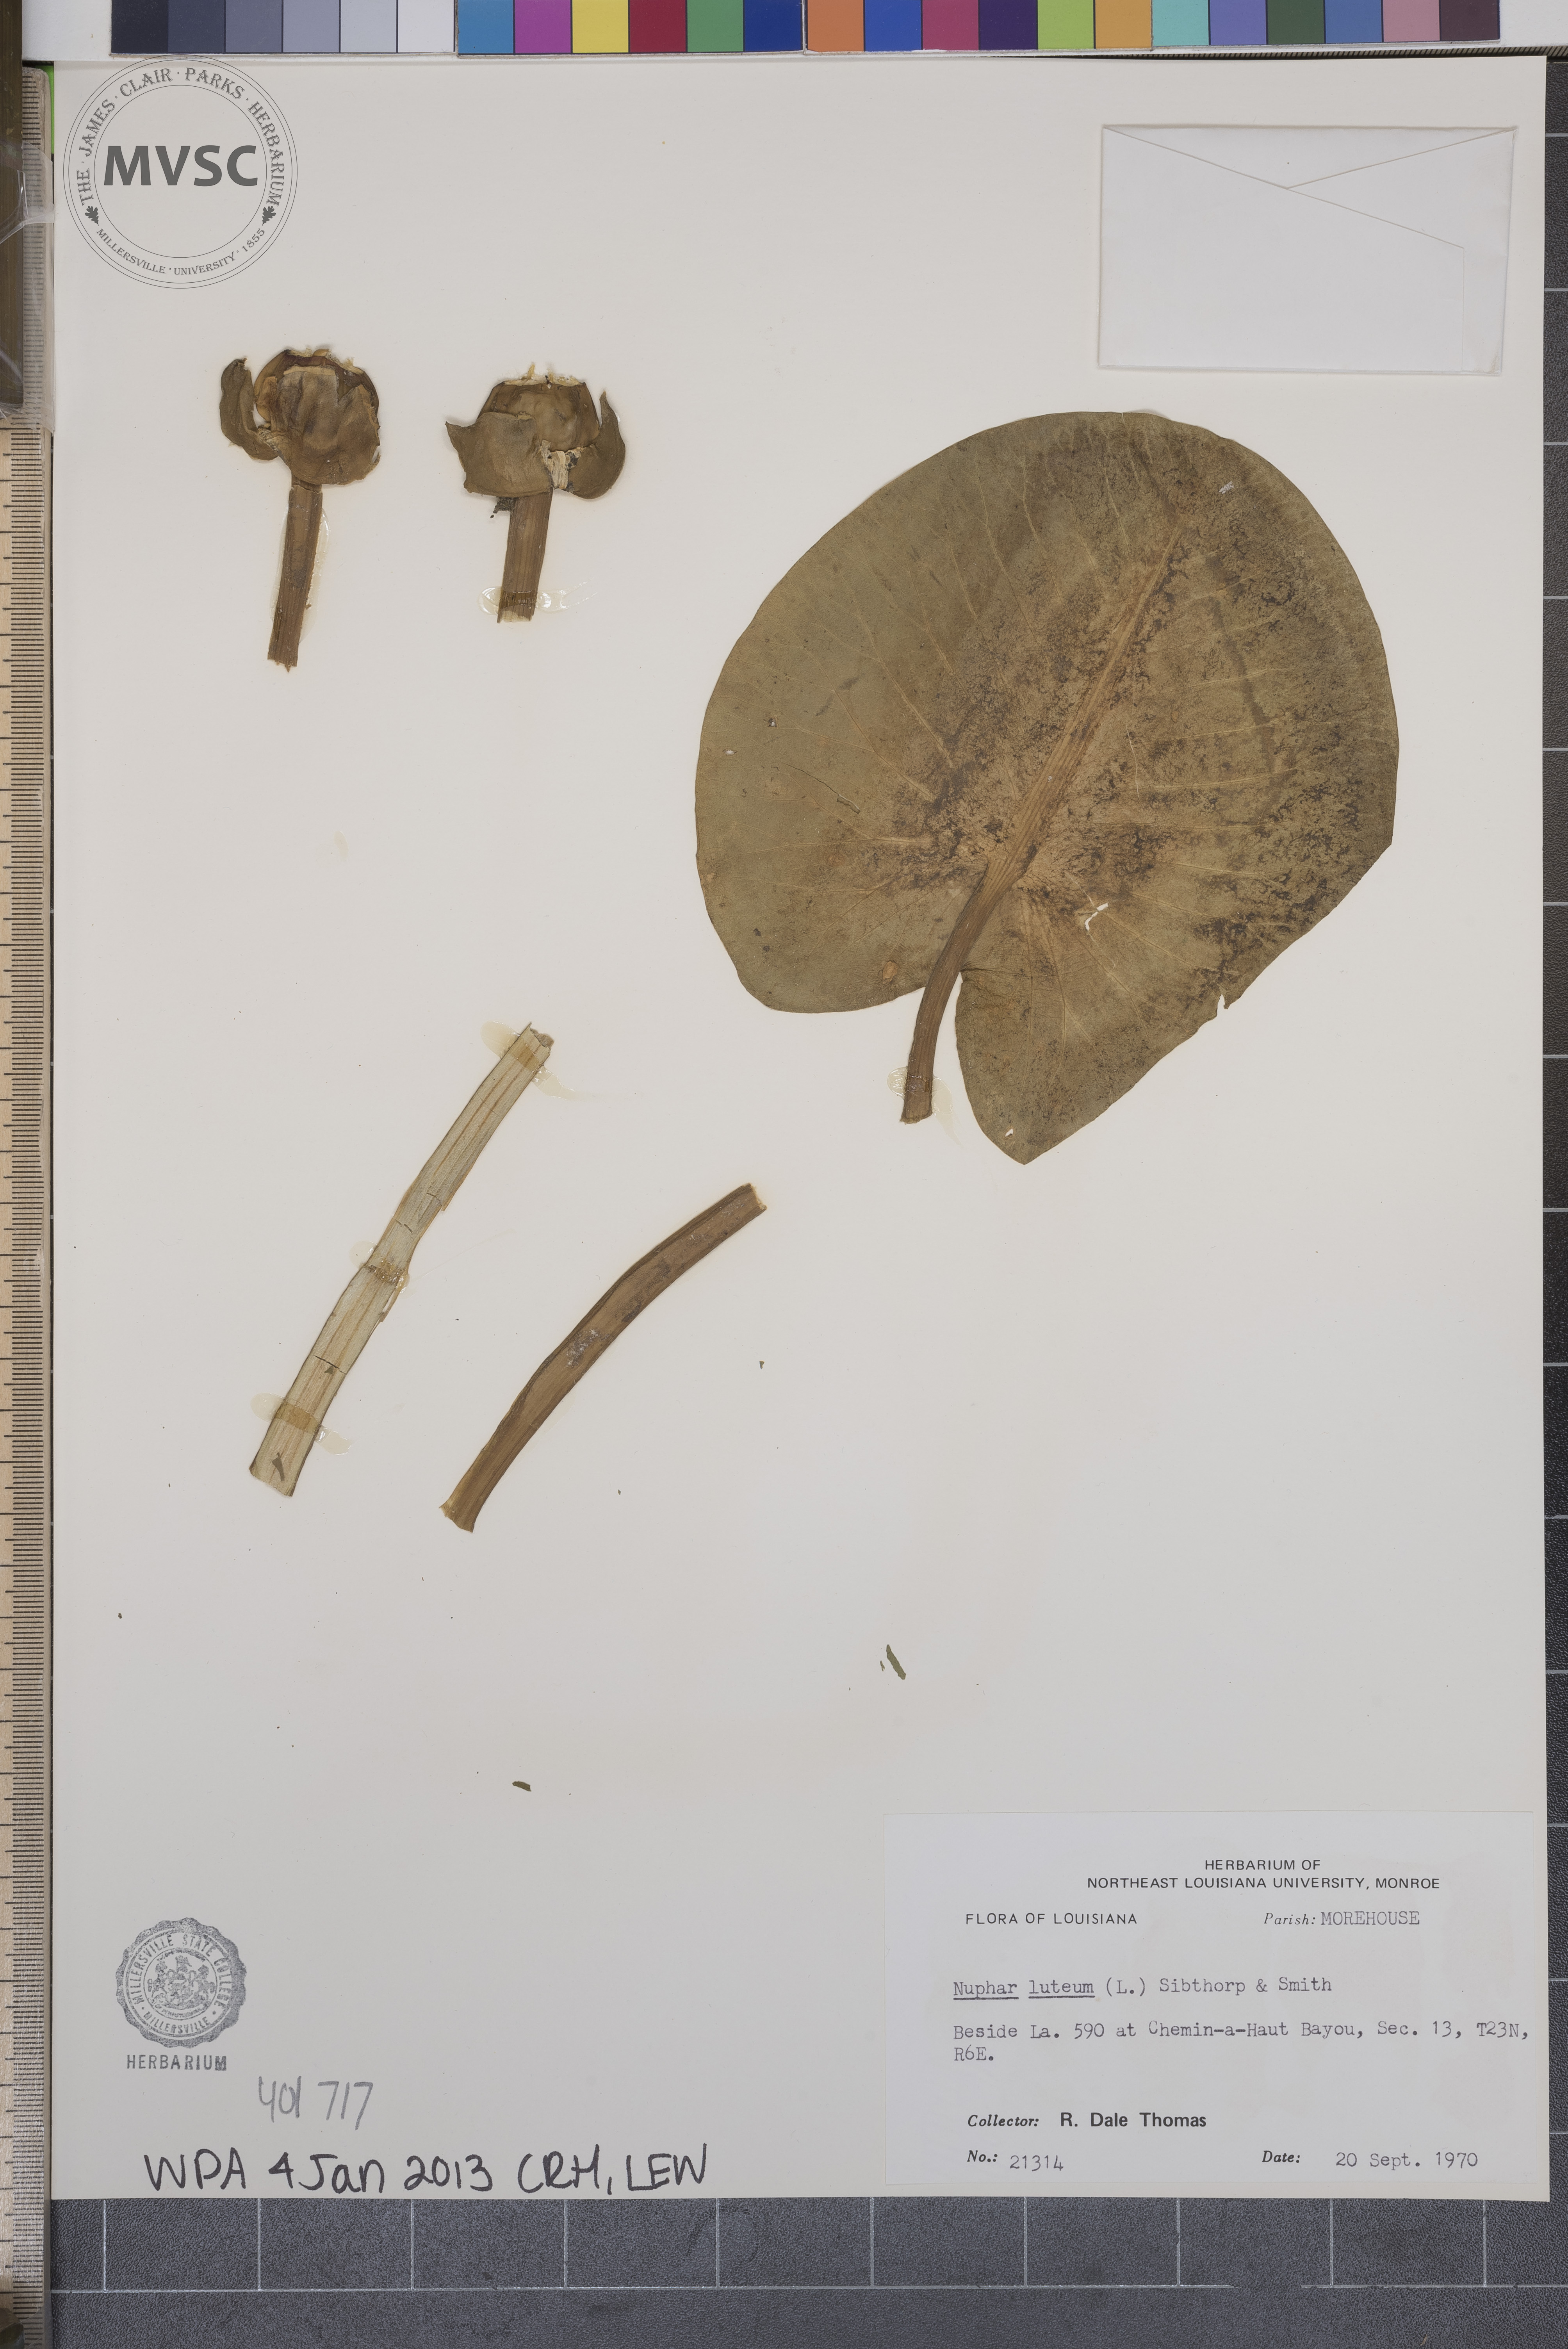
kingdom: Plantae
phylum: Tracheophyta
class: Magnoliopsida
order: Nymphaeales
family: Nymphaeaceae
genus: Nuphar
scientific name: Nuphar lutea
